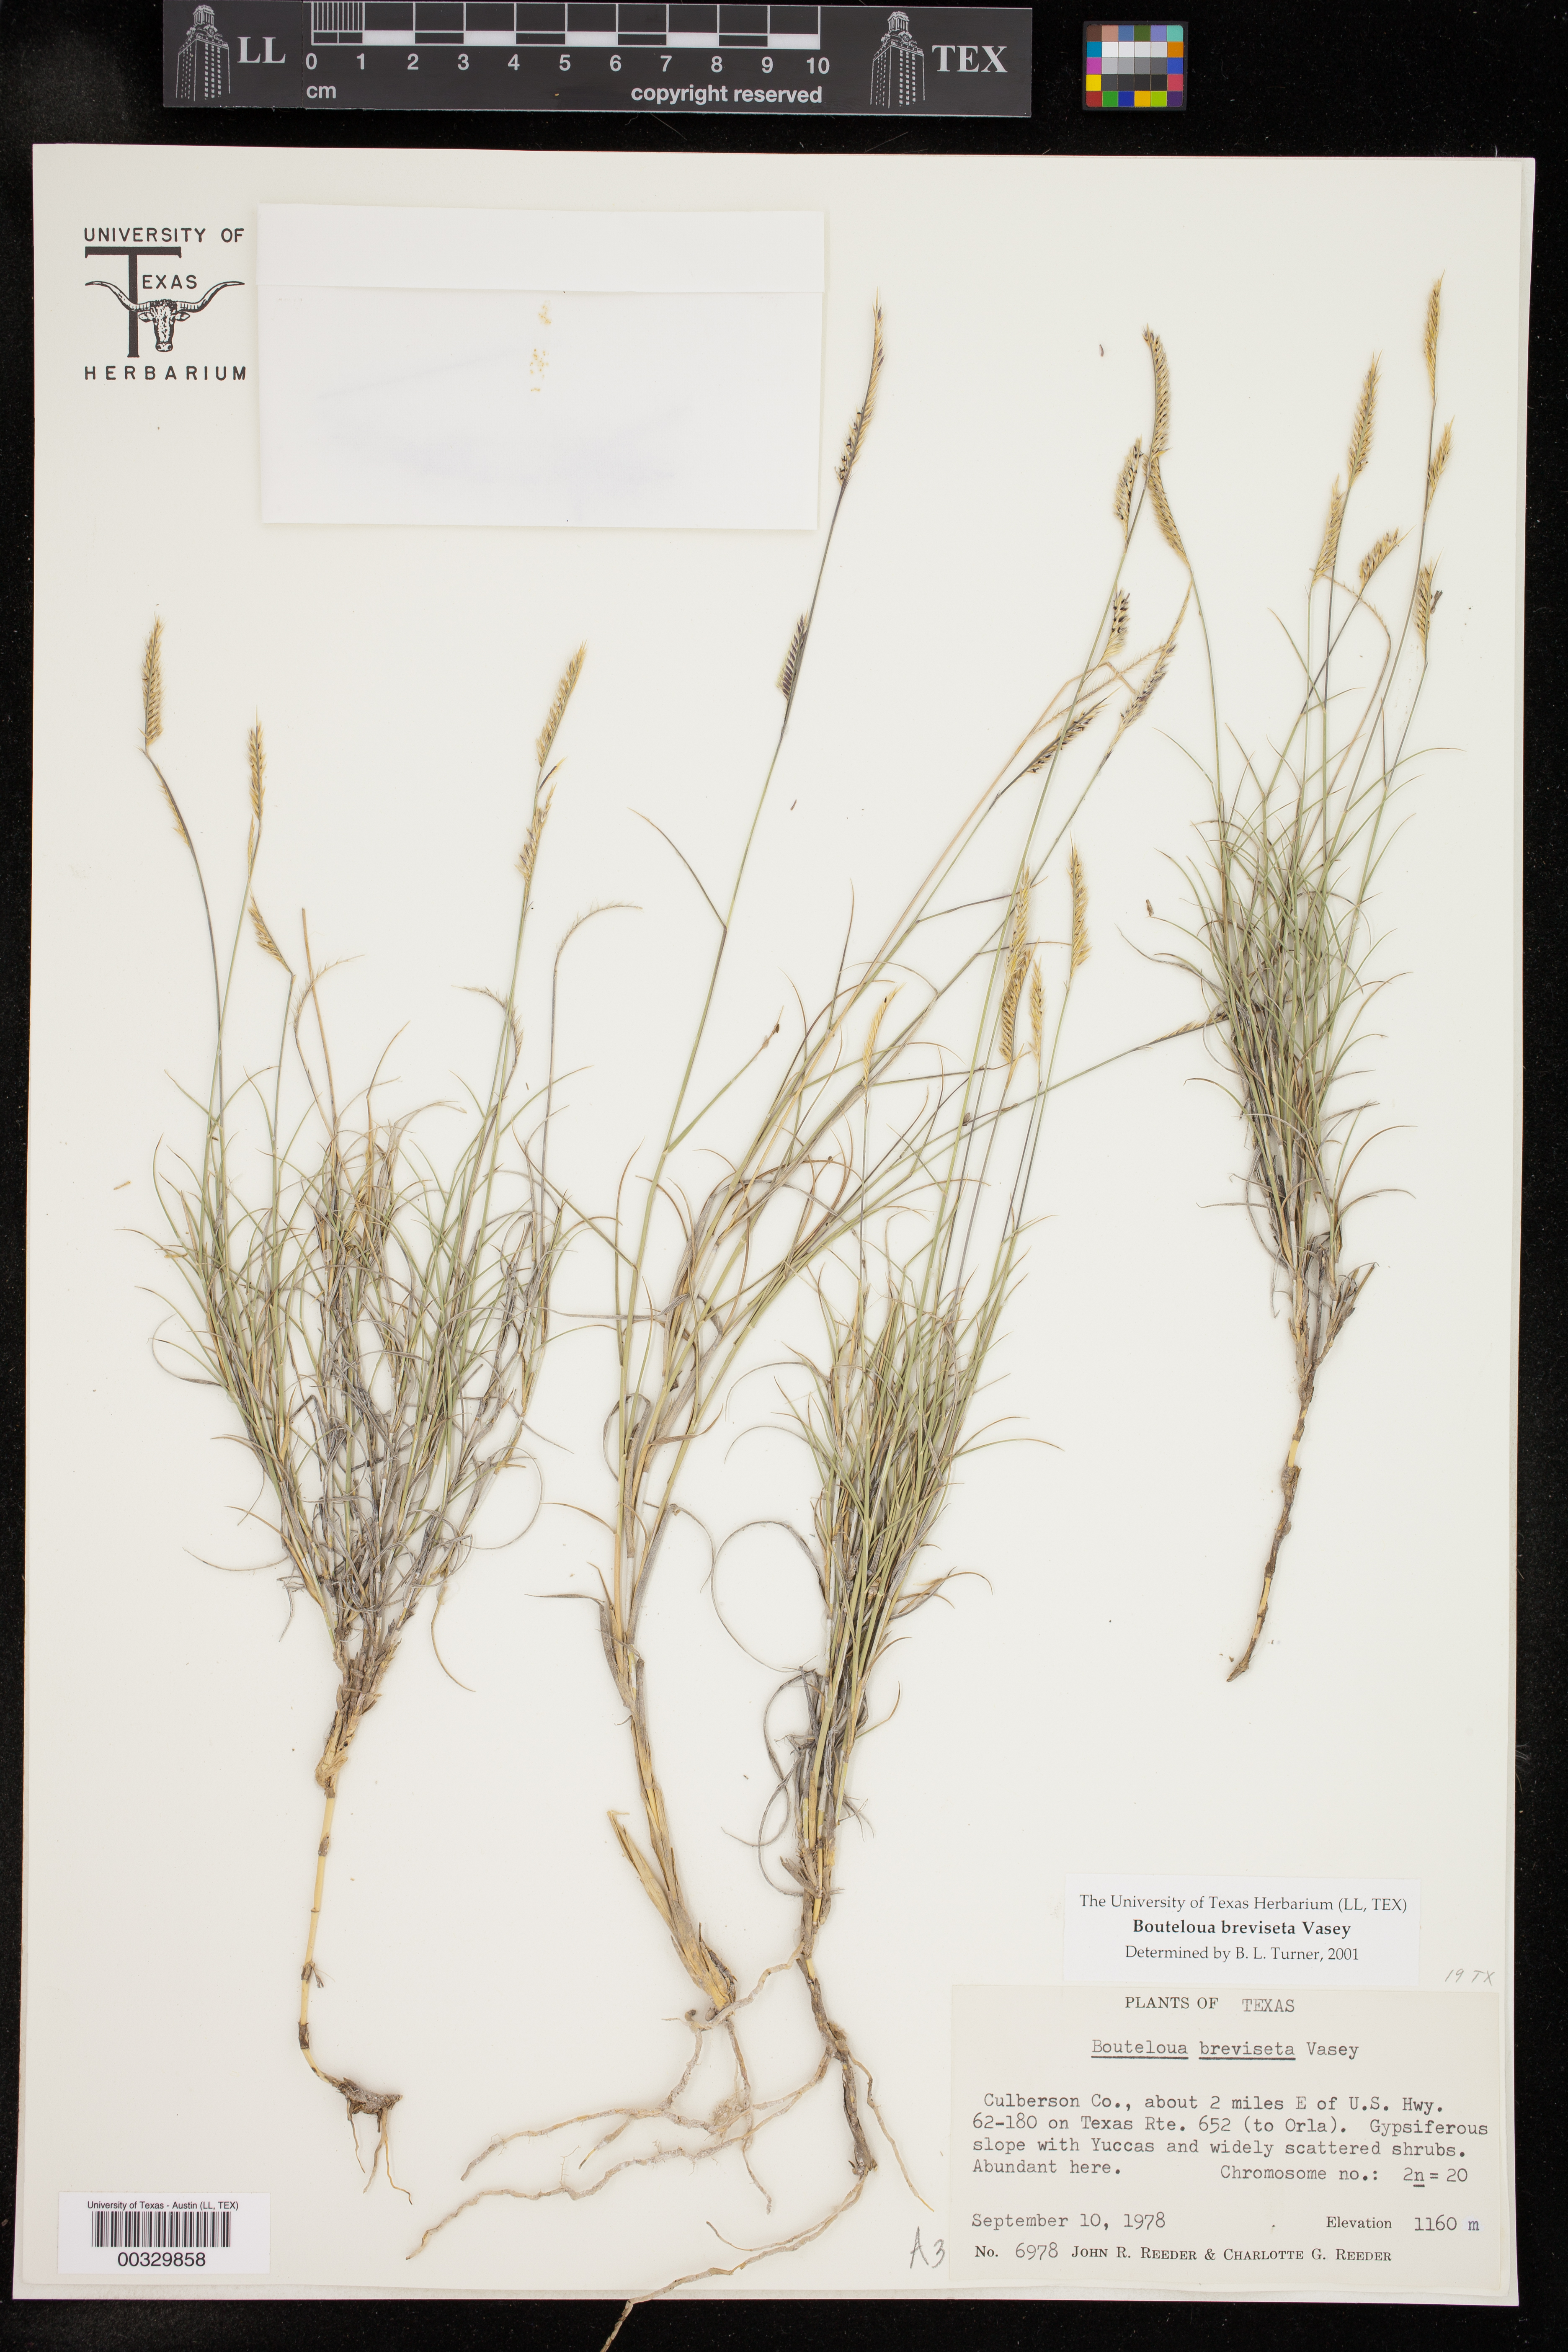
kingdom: Plantae
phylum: Tracheophyta
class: Liliopsida
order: Poales
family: Poaceae
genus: Bouteloua
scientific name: Bouteloua breviseta
